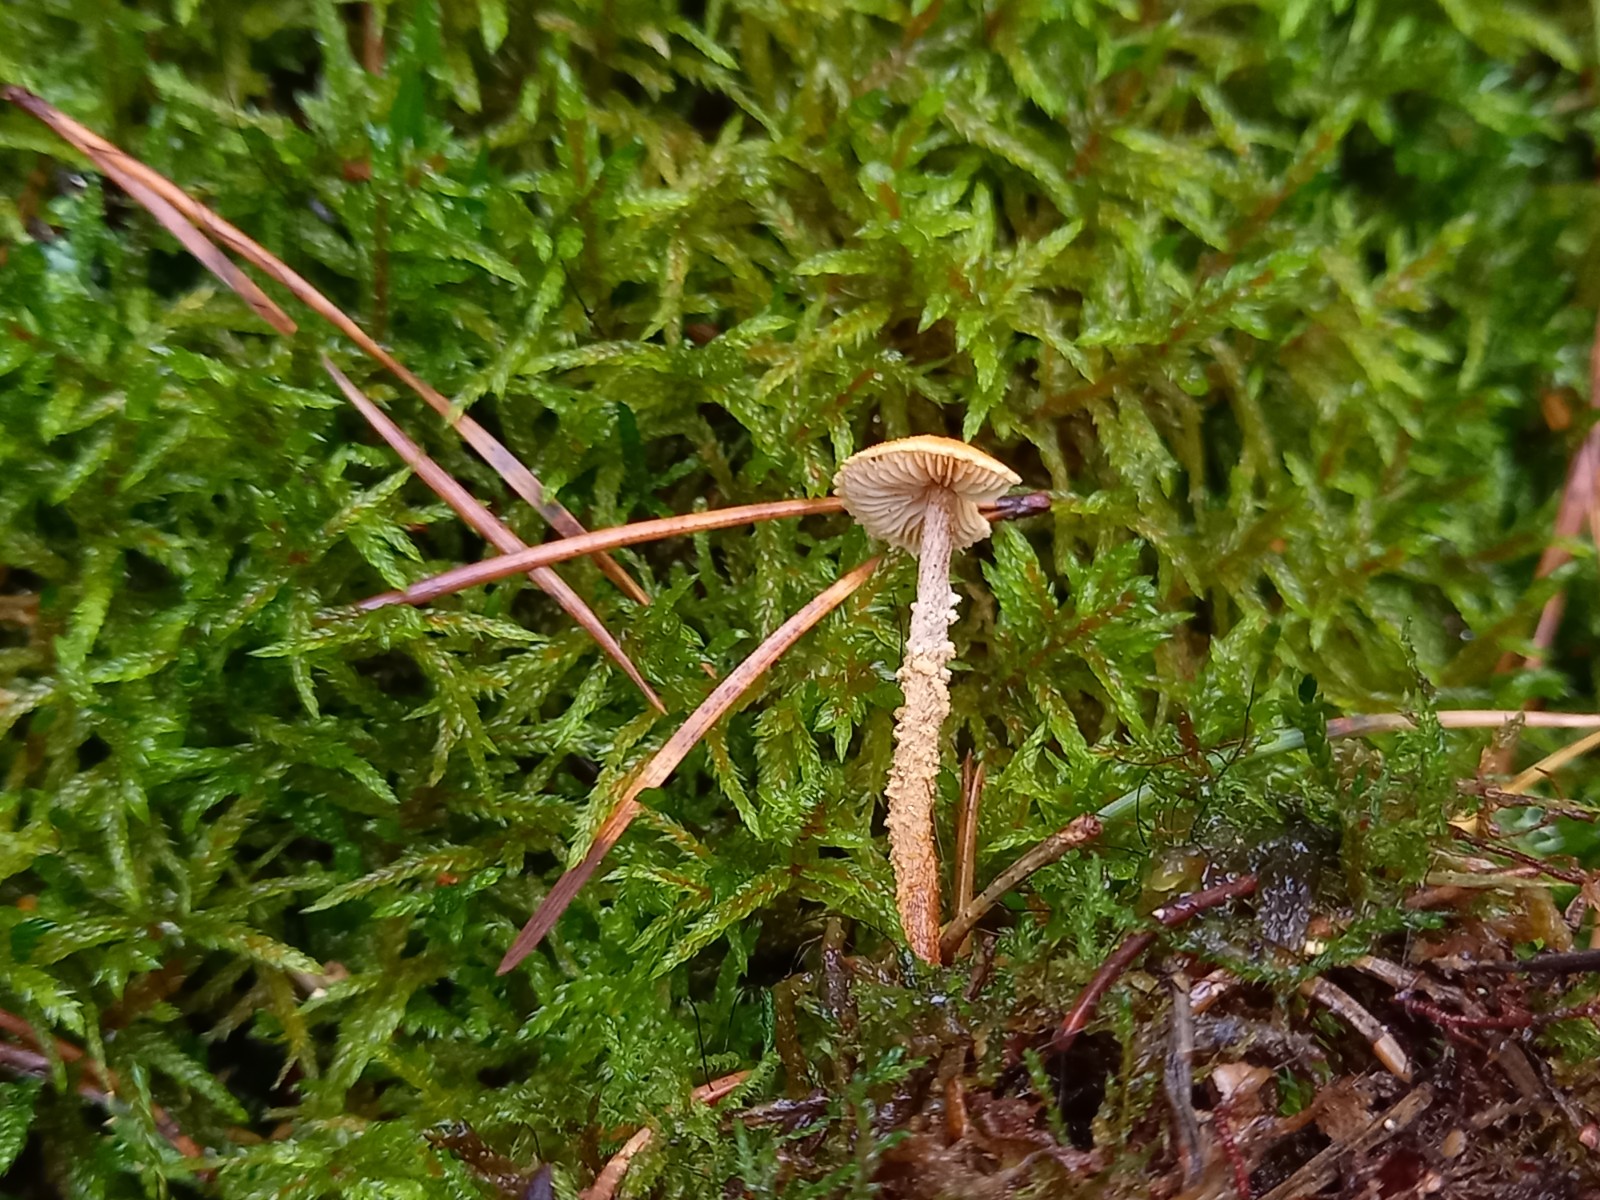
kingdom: Fungi
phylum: Basidiomycota
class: Agaricomycetes
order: Agaricales
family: Tricholomataceae
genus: Cystoderma
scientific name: Cystoderma amianthinum
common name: okkergul grynhat
